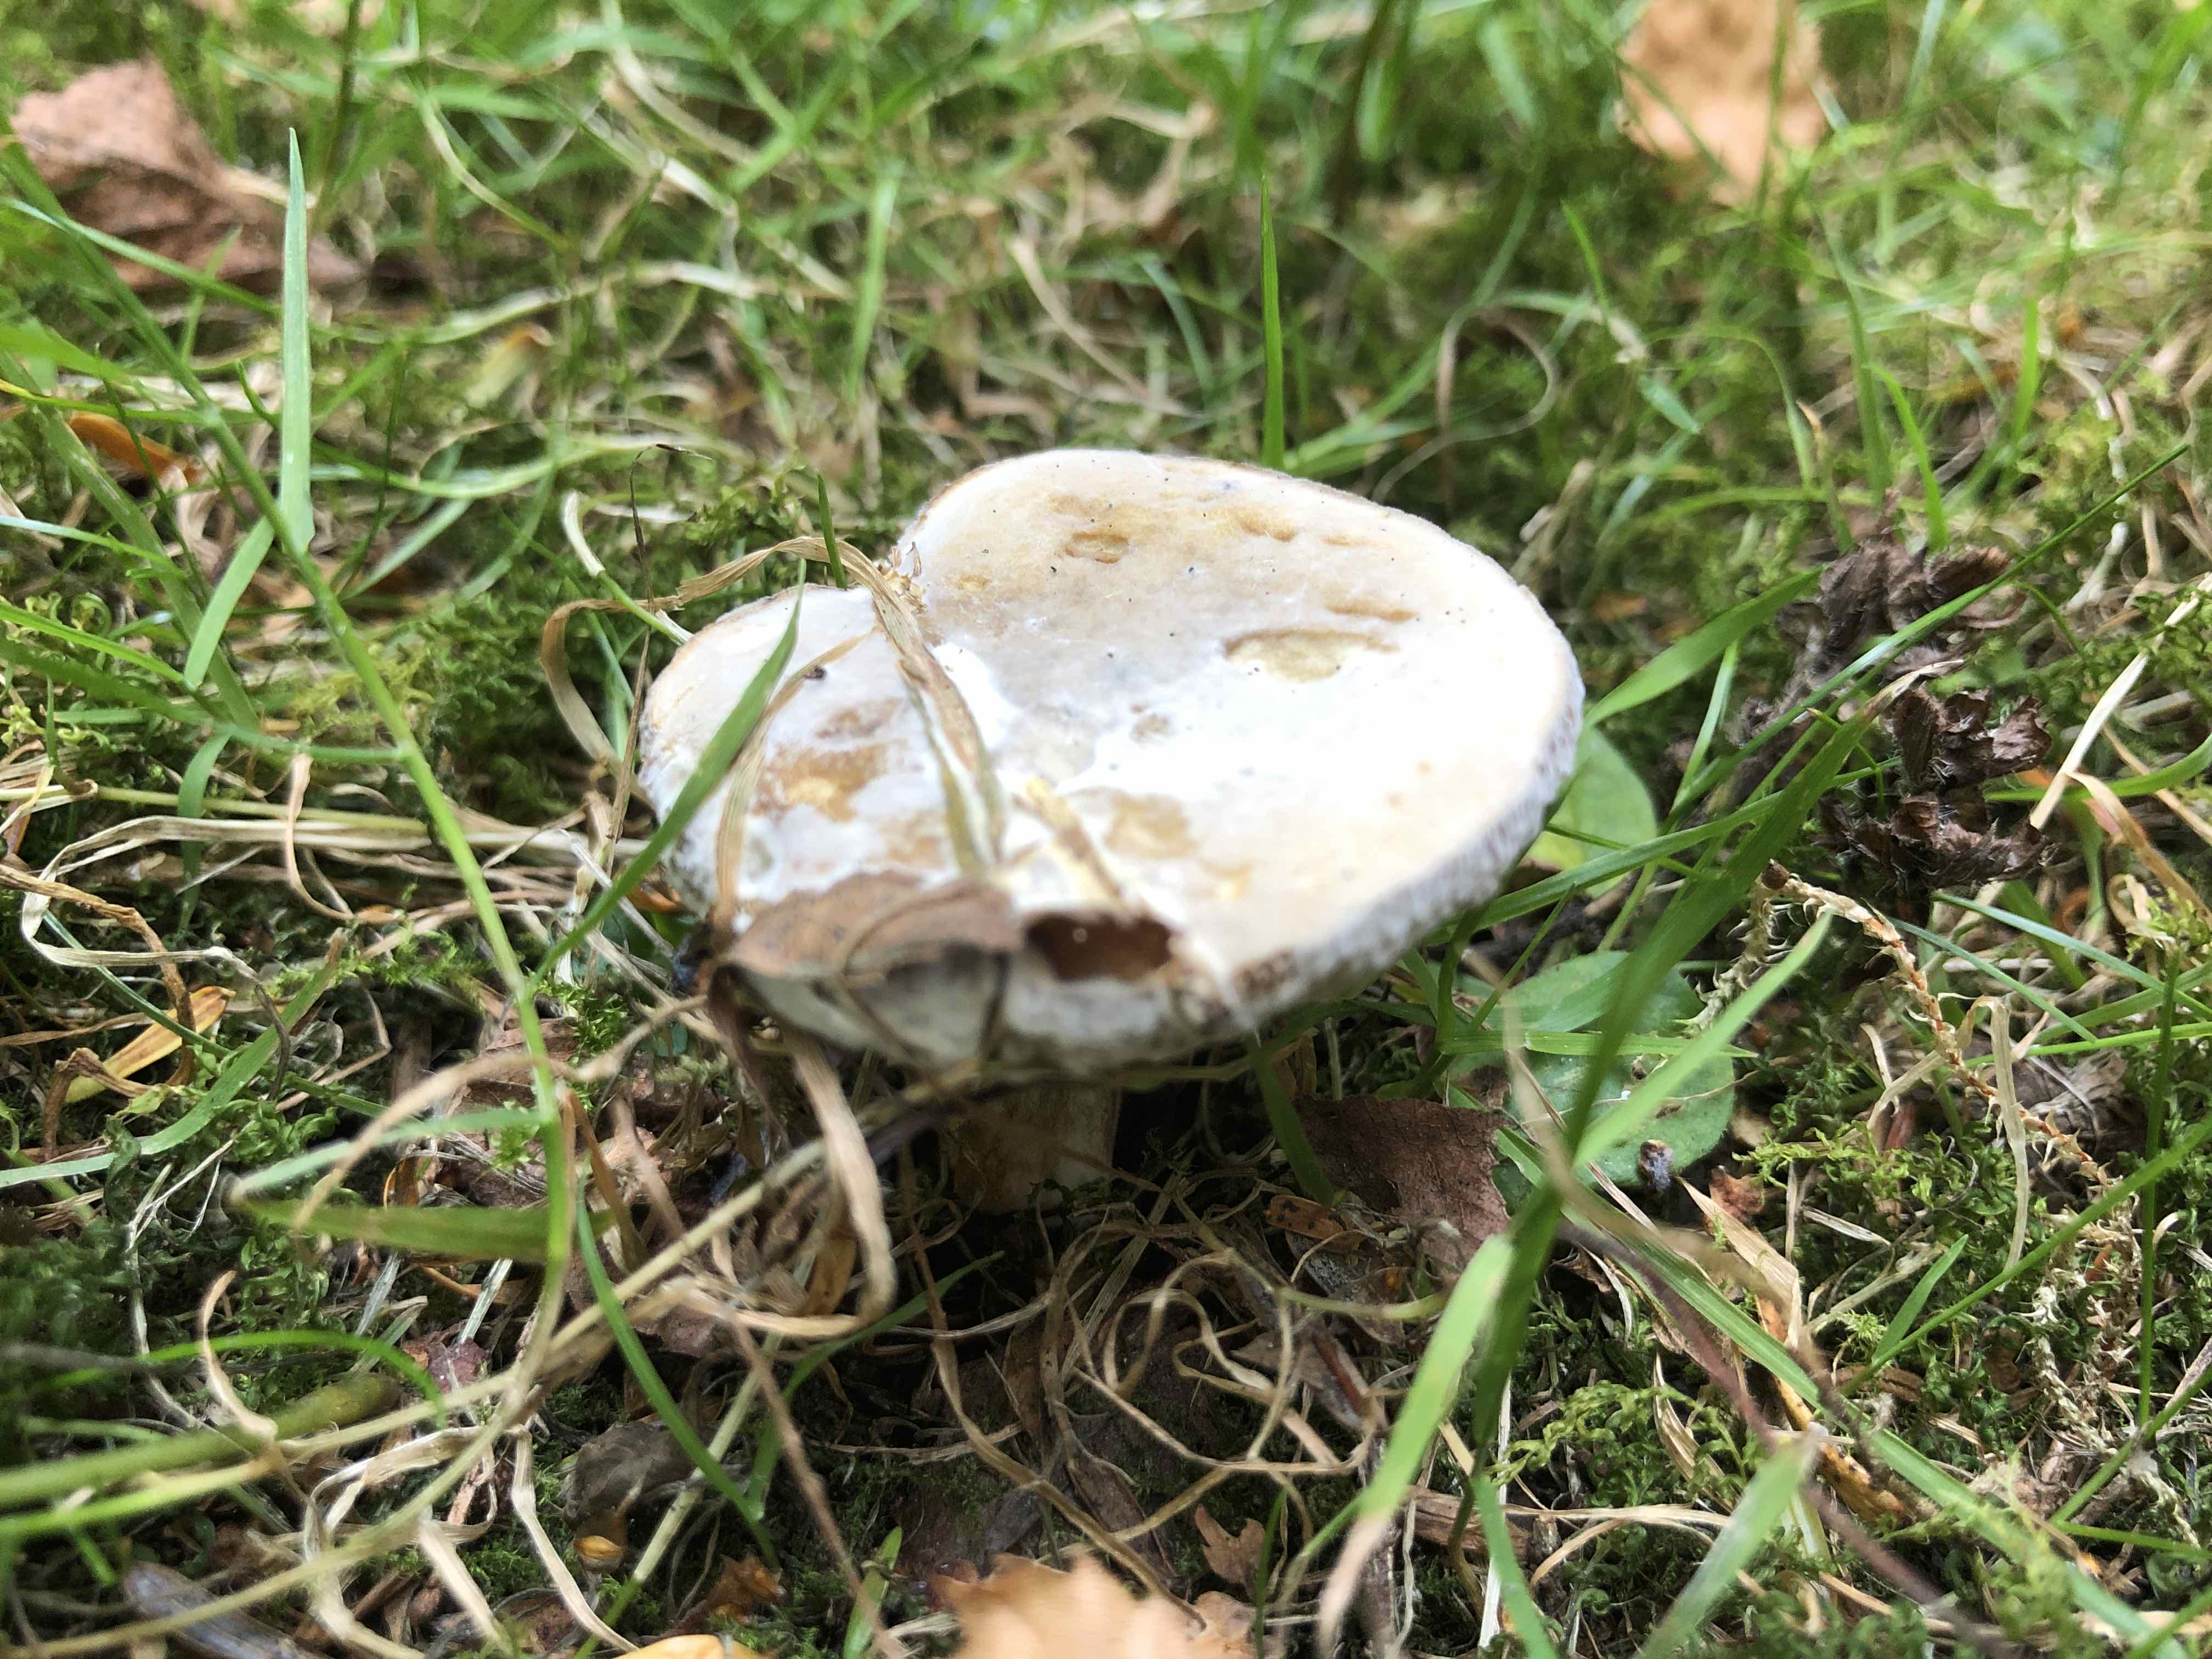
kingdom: Fungi
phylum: Basidiomycota
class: Agaricomycetes
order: Boletales
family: Boletaceae
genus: Hortiboletus
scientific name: Hortiboletus
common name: dværgrørhat
